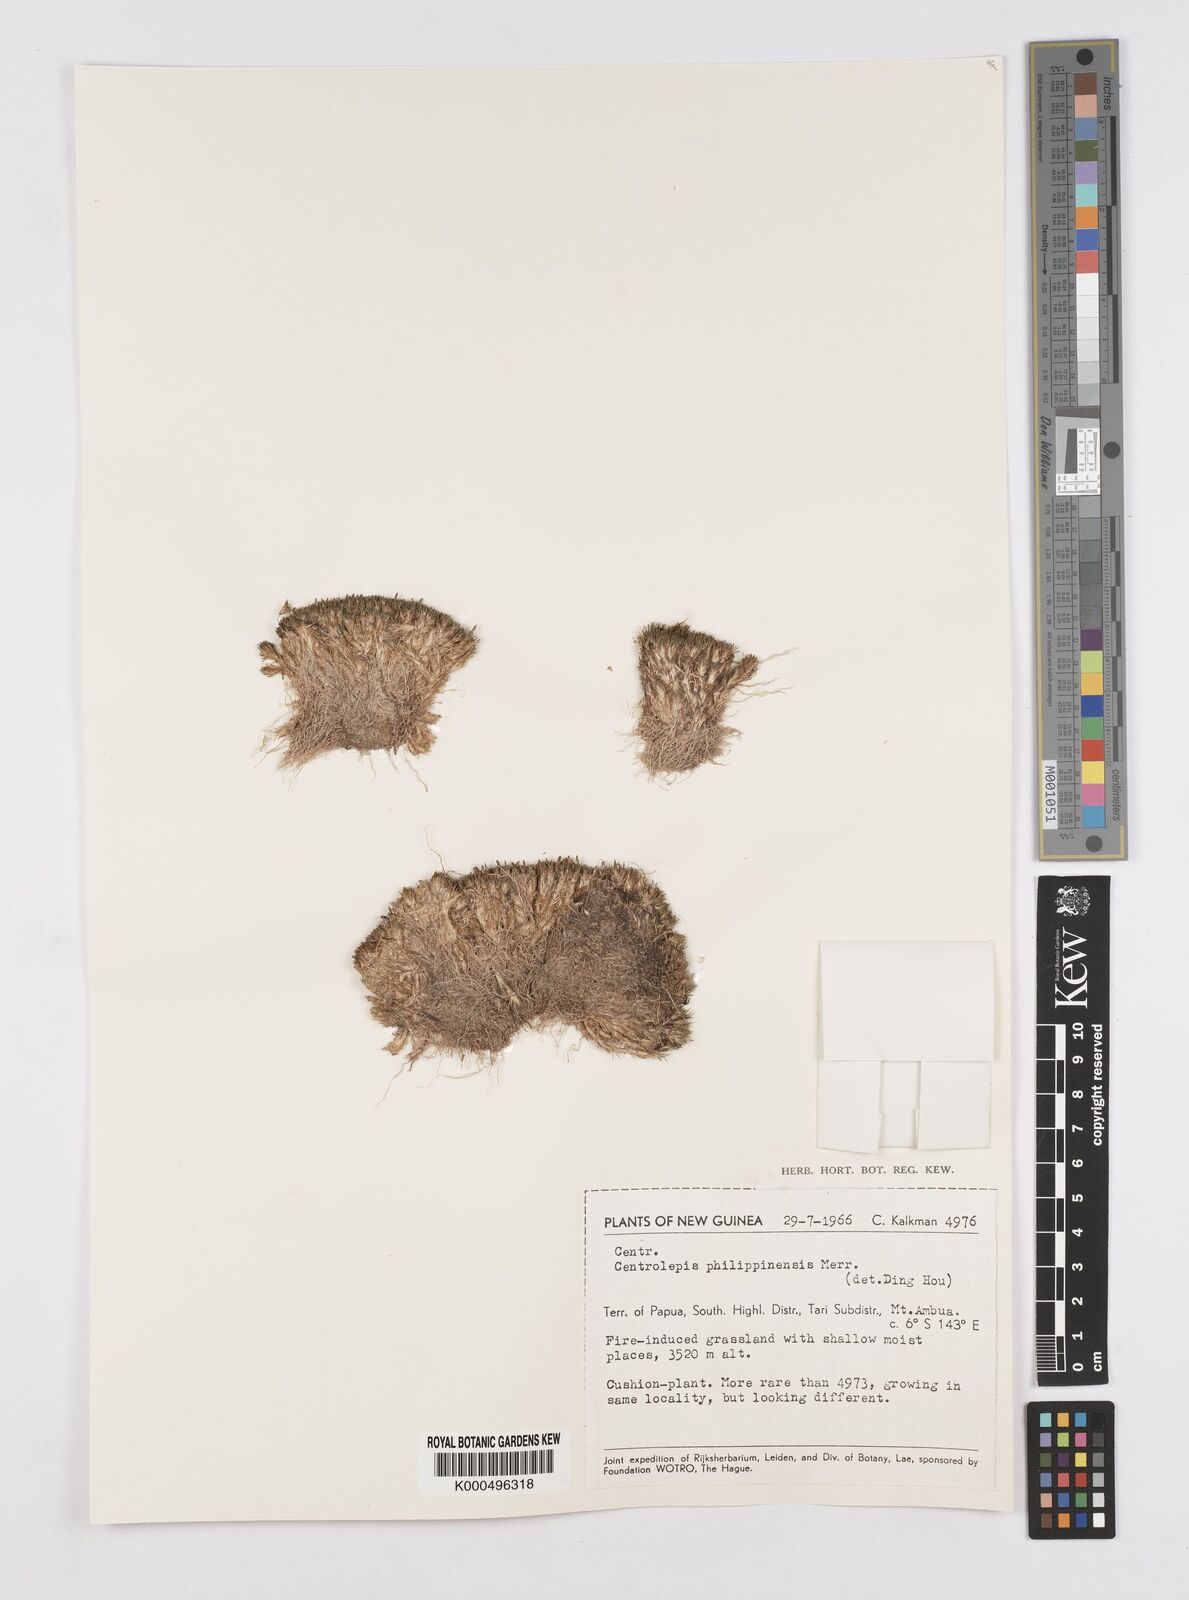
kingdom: Plantae
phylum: Tracheophyta
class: Liliopsida
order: Poales
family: Restionaceae
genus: Centrolepis
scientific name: Centrolepis philippinensis
